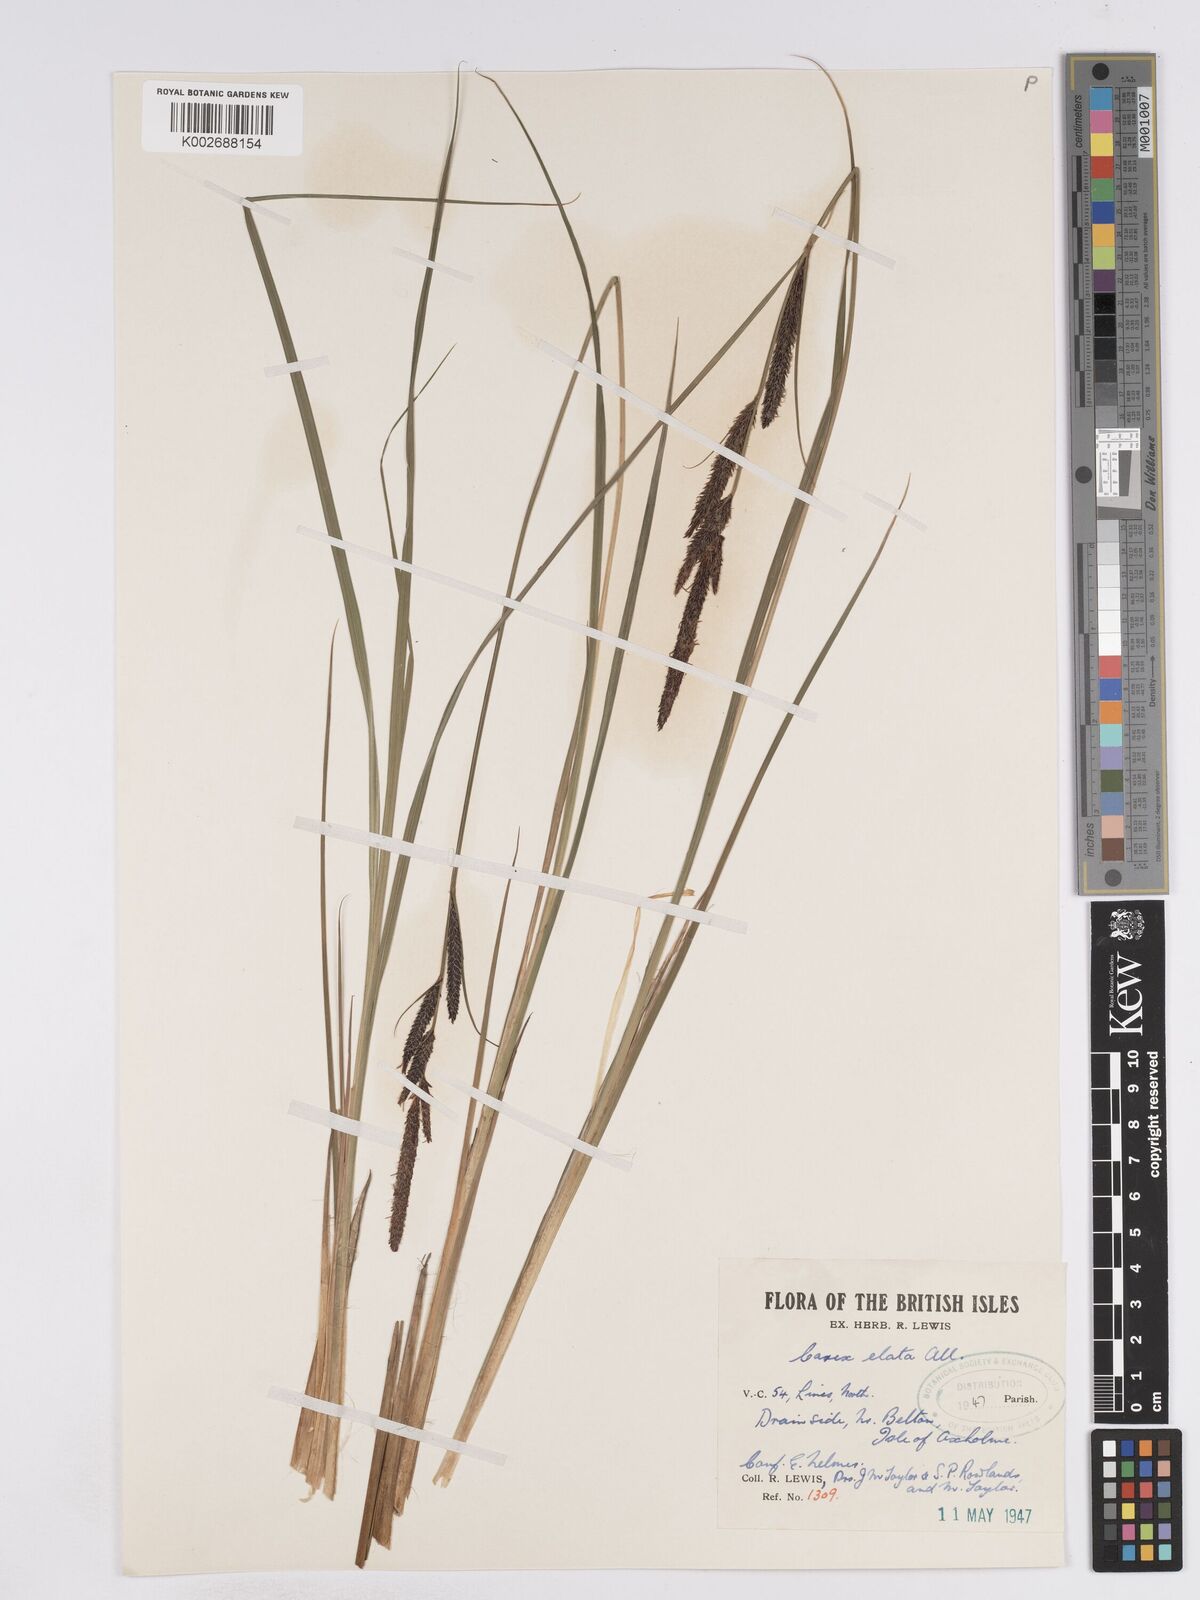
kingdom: Plantae
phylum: Tracheophyta
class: Liliopsida
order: Poales
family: Cyperaceae
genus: Carex
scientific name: Carex elata
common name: Tufted sedge
